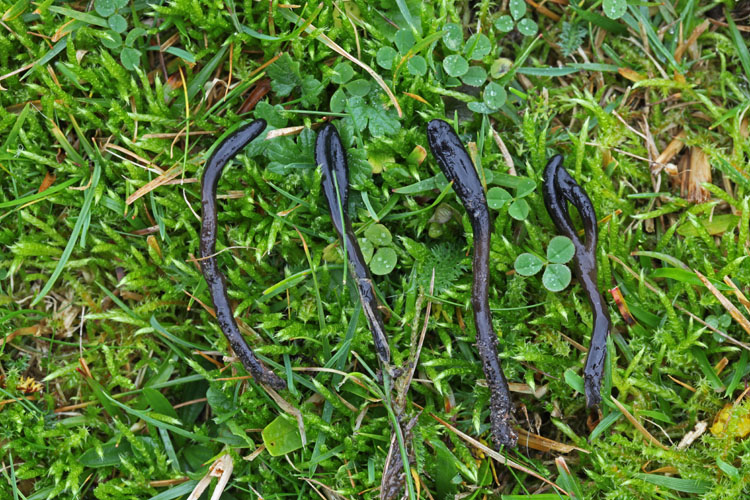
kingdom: Fungi
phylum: Ascomycota
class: Geoglossomycetes
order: Geoglossales
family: Geoglossaceae
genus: Glutinoglossum
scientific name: Glutinoglossum glutinosum
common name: slimet jordtunge
